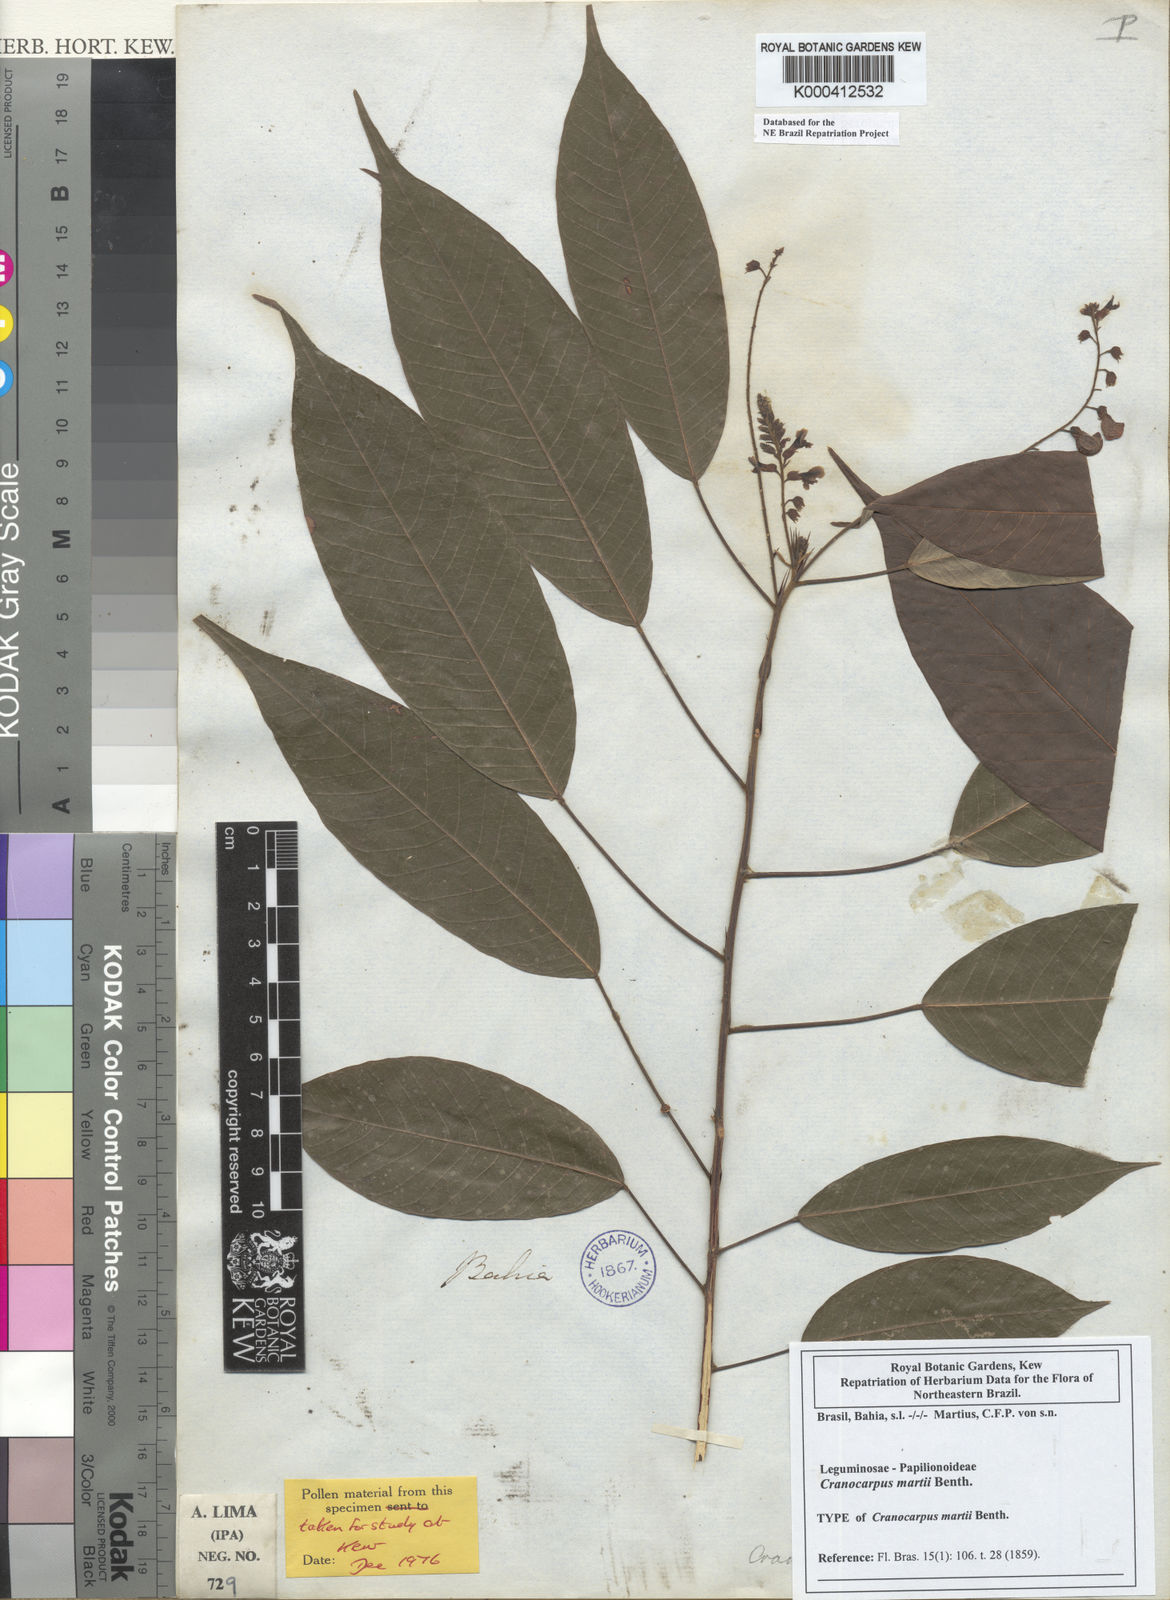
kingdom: Plantae
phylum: Tracheophyta
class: Magnoliopsida
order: Fabales
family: Fabaceae
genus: Cranocarpus
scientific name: Cranocarpus martii
